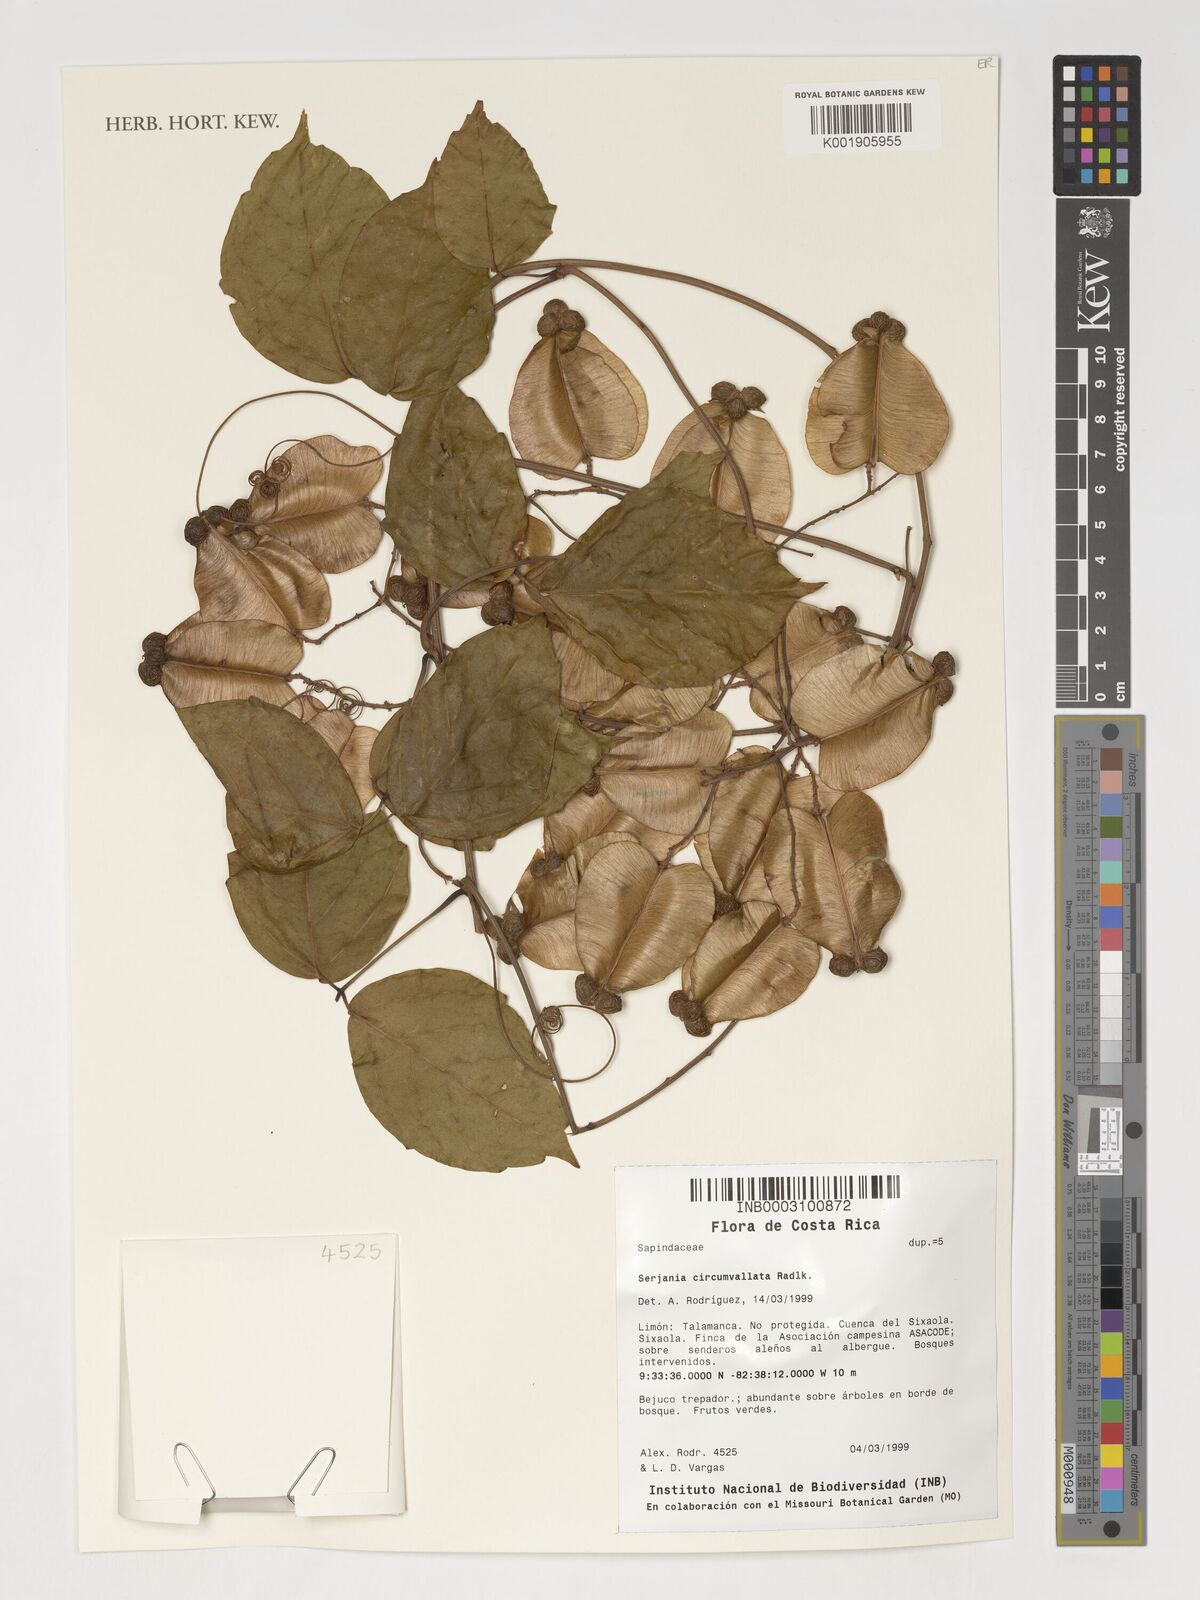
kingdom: Plantae
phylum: Tracheophyta
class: Magnoliopsida
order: Sapindales
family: Sapindaceae
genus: Serjania
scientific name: Serjania circumvallata
